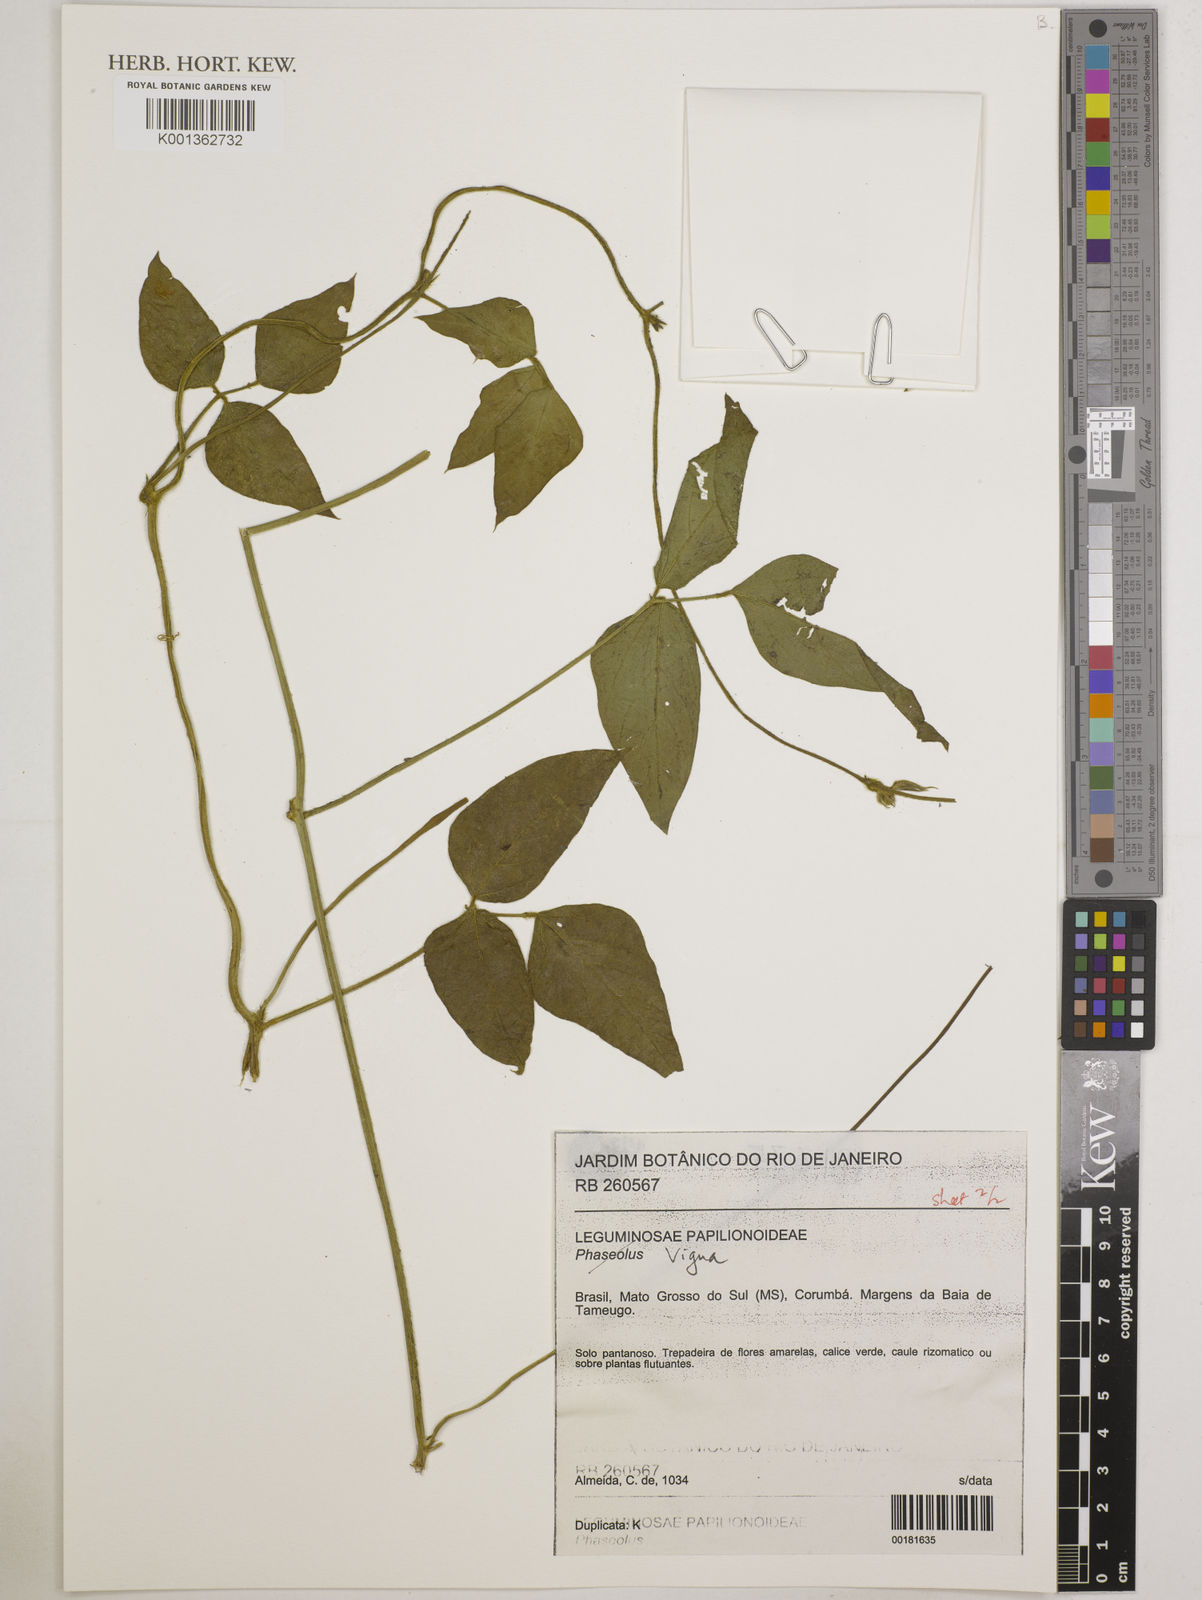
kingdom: Plantae
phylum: Tracheophyta
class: Magnoliopsida
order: Fabales
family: Fabaceae
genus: Vigna
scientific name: Vigna
